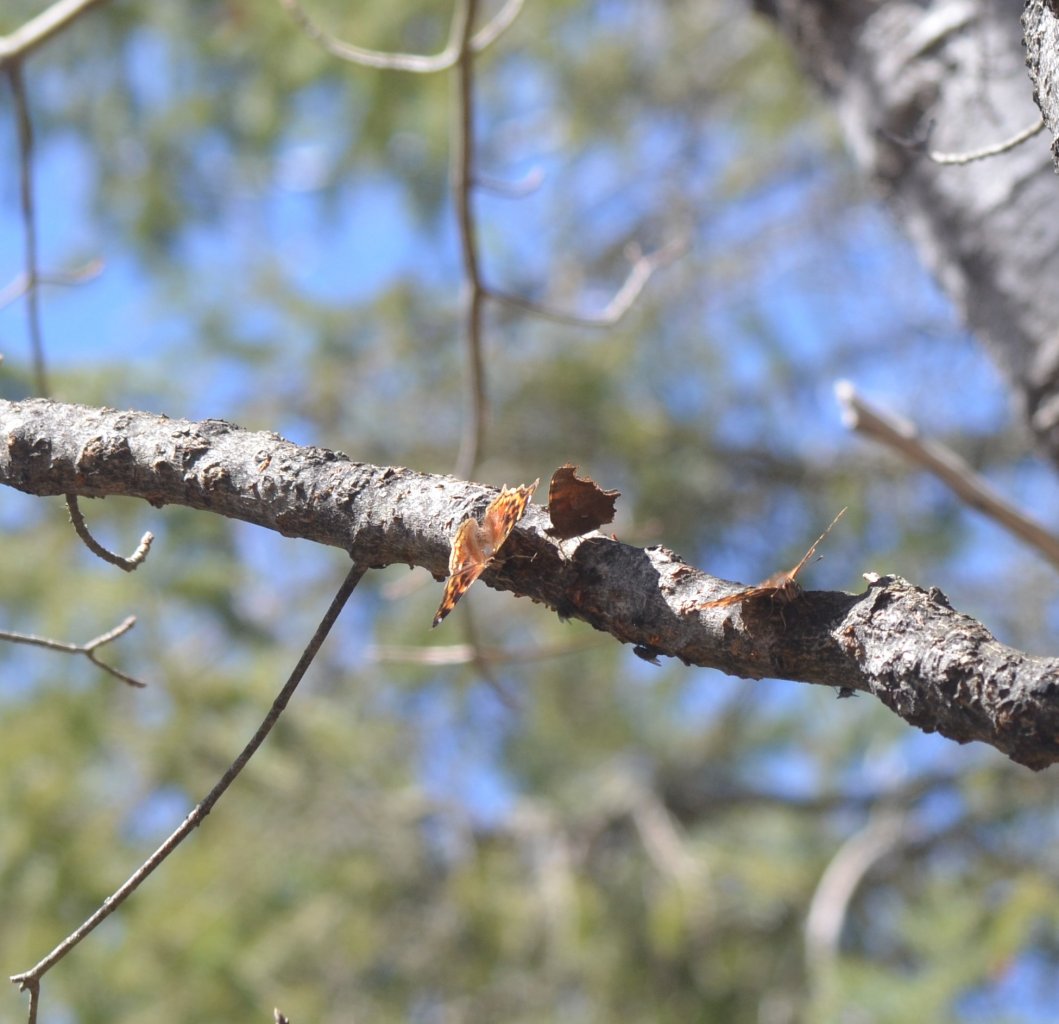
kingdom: Animalia
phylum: Arthropoda
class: Insecta
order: Lepidoptera
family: Nymphalidae
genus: Polygonia
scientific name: Polygonia vaualbum
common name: Compton Tortoiseshell
